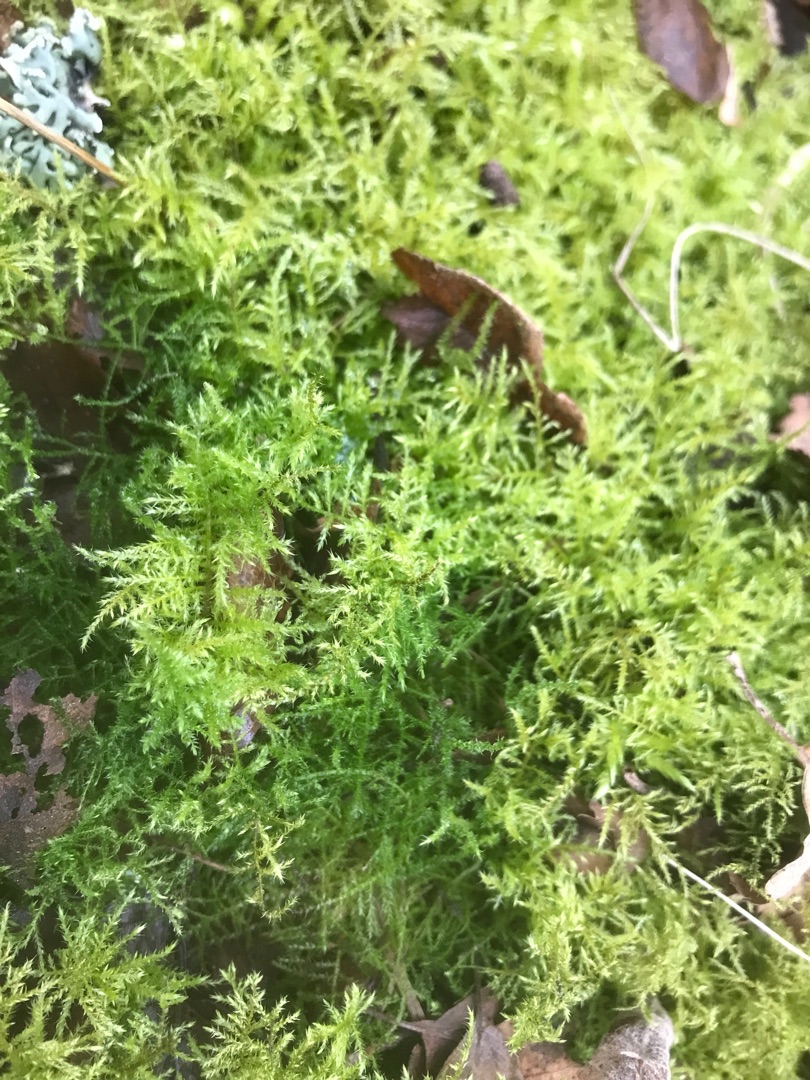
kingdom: Plantae
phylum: Bryophyta
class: Bryopsida
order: Hypnales
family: Brachytheciaceae
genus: Kindbergia
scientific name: Kindbergia praelonga
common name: Forskelligbladet vortetand
